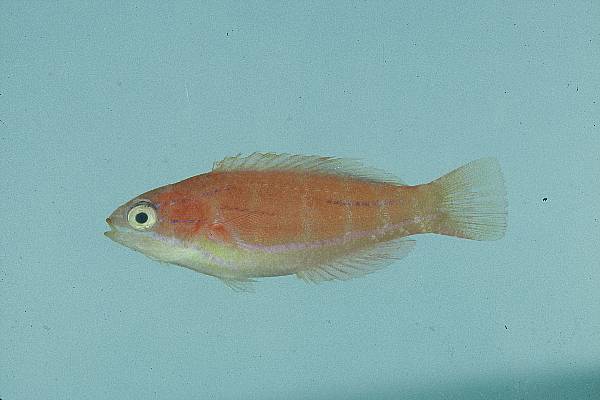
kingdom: Animalia
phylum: Chordata
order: Perciformes
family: Labridae
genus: Paracheilinus
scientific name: Paracheilinus mccoskeri
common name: Mccosker's flasher
